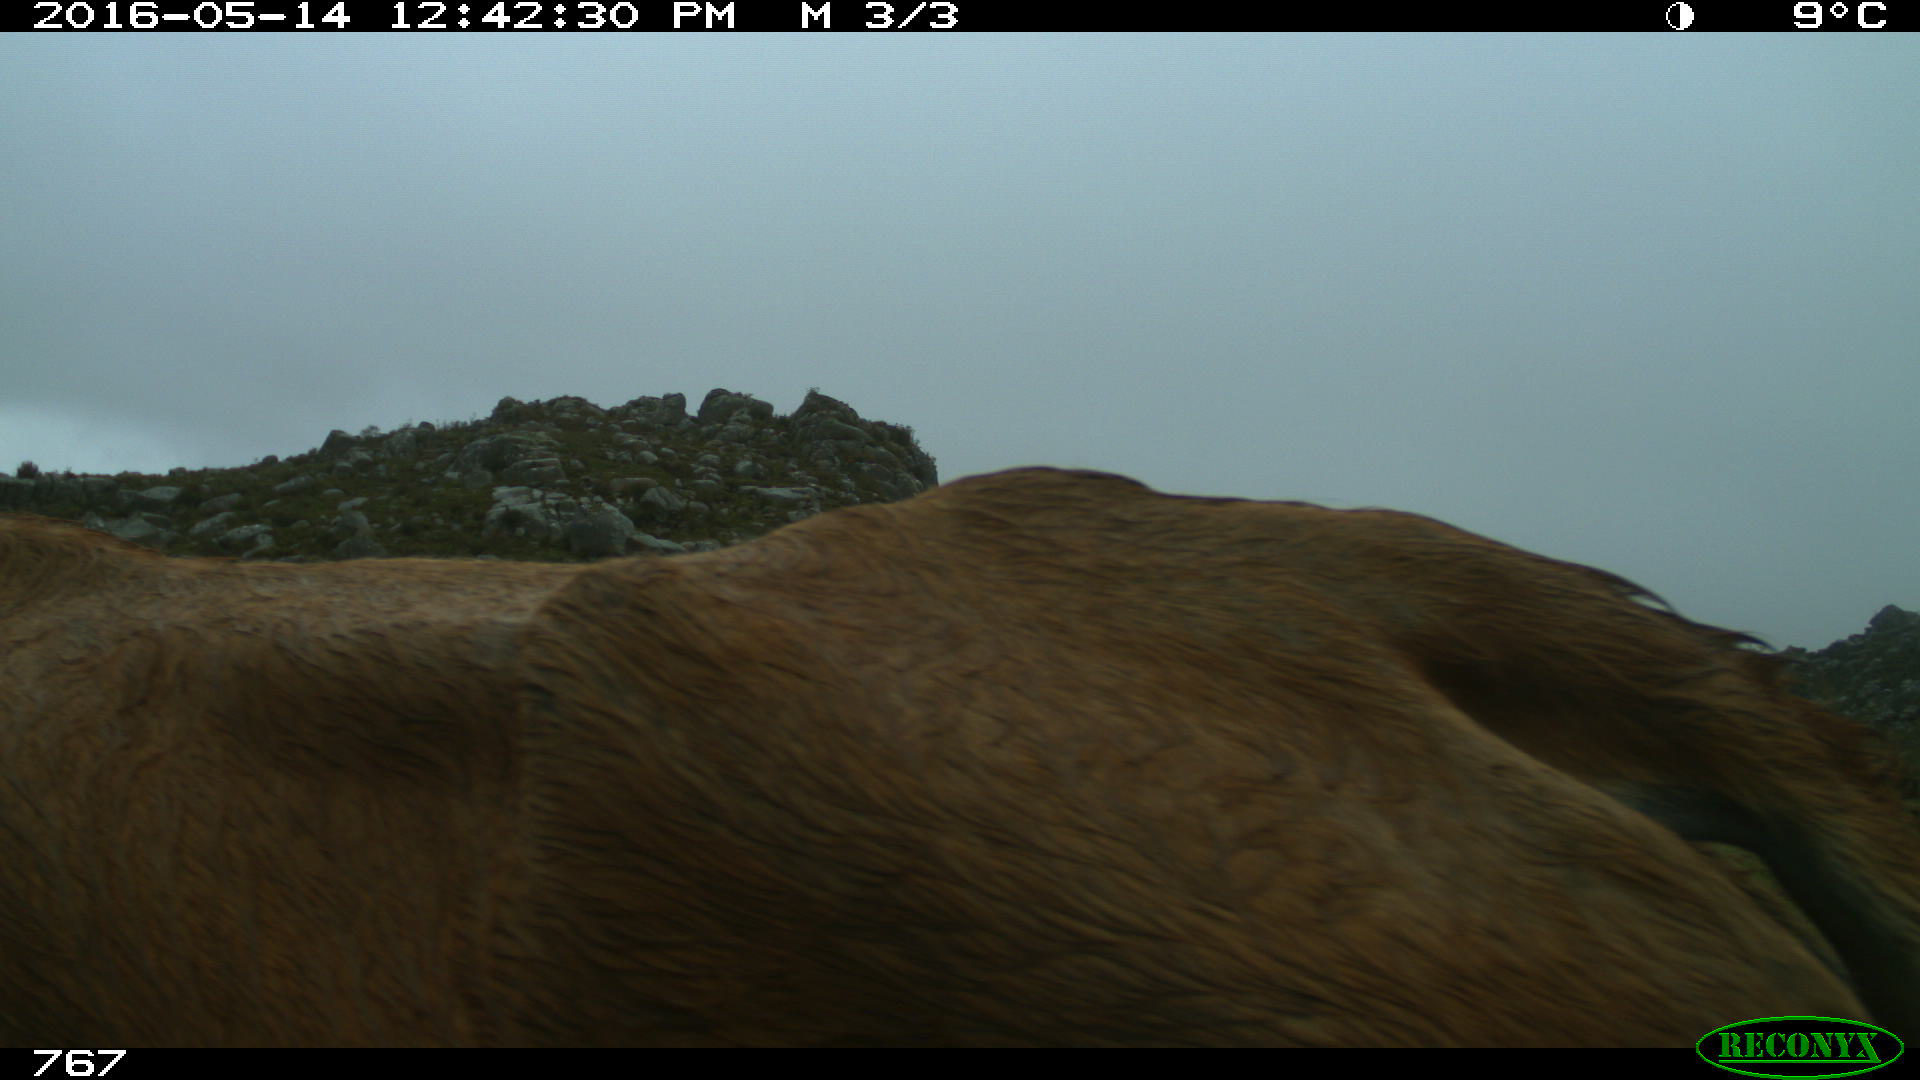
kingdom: Animalia
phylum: Chordata
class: Mammalia
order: Artiodactyla
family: Bovidae
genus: Bos
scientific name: Bos taurus
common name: Domesticated cattle
